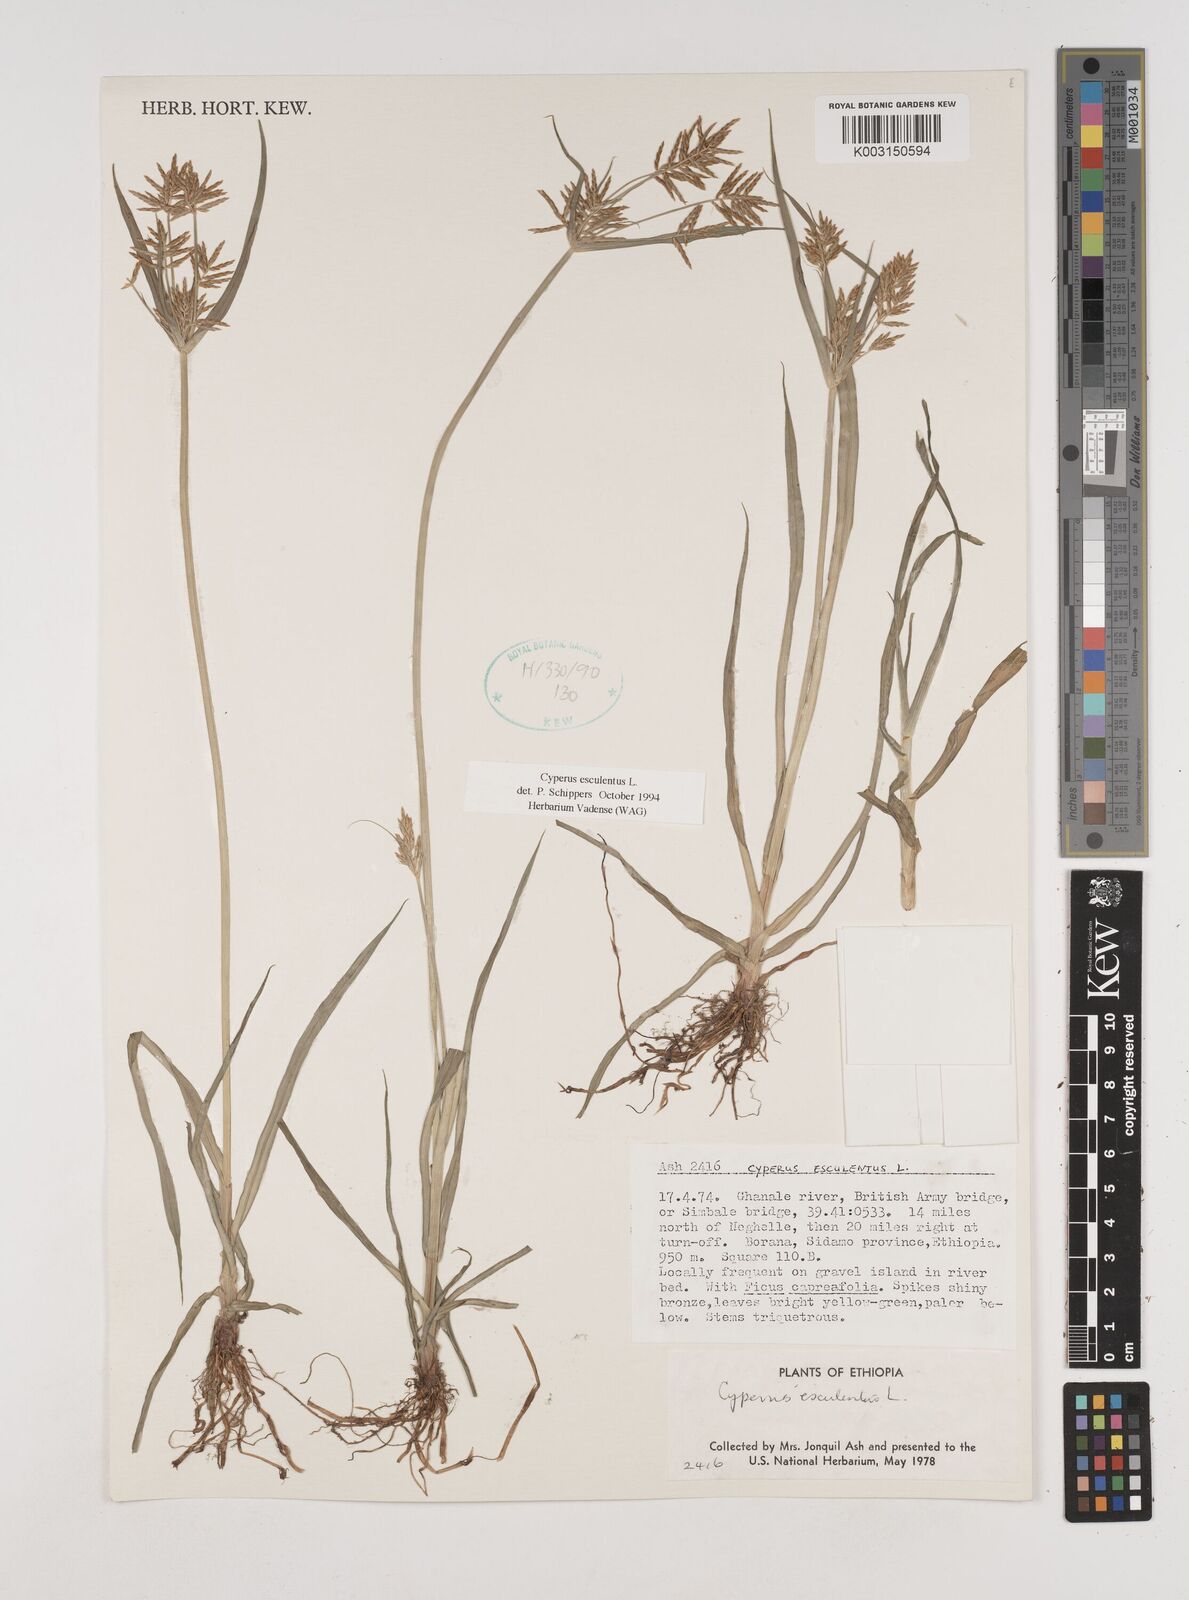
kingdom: Plantae
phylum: Tracheophyta
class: Liliopsida
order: Poales
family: Cyperaceae
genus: Cyperus
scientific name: Cyperus esculentus
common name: Yellow nutsedge
